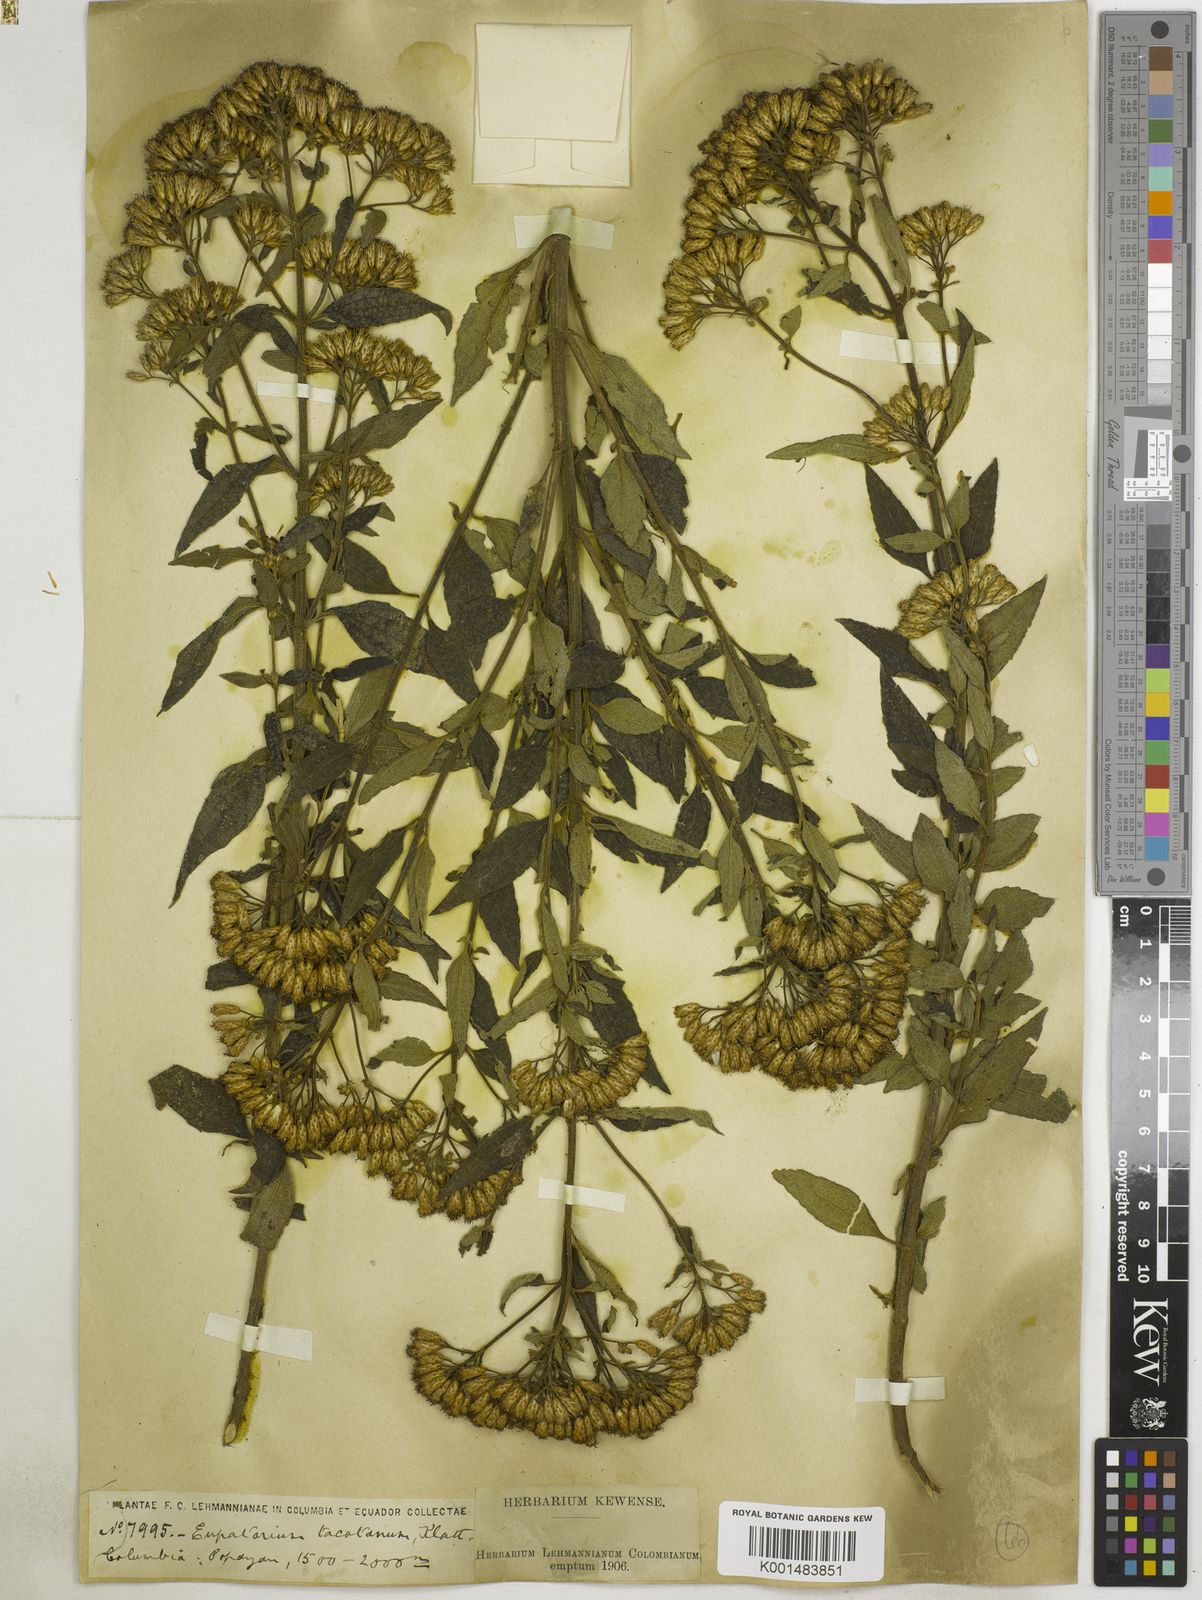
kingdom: Plantae
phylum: Tracheophyta
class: Magnoliopsida
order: Asterales
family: Asteraceae
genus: Chromolaena
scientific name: Chromolaena tacotana
